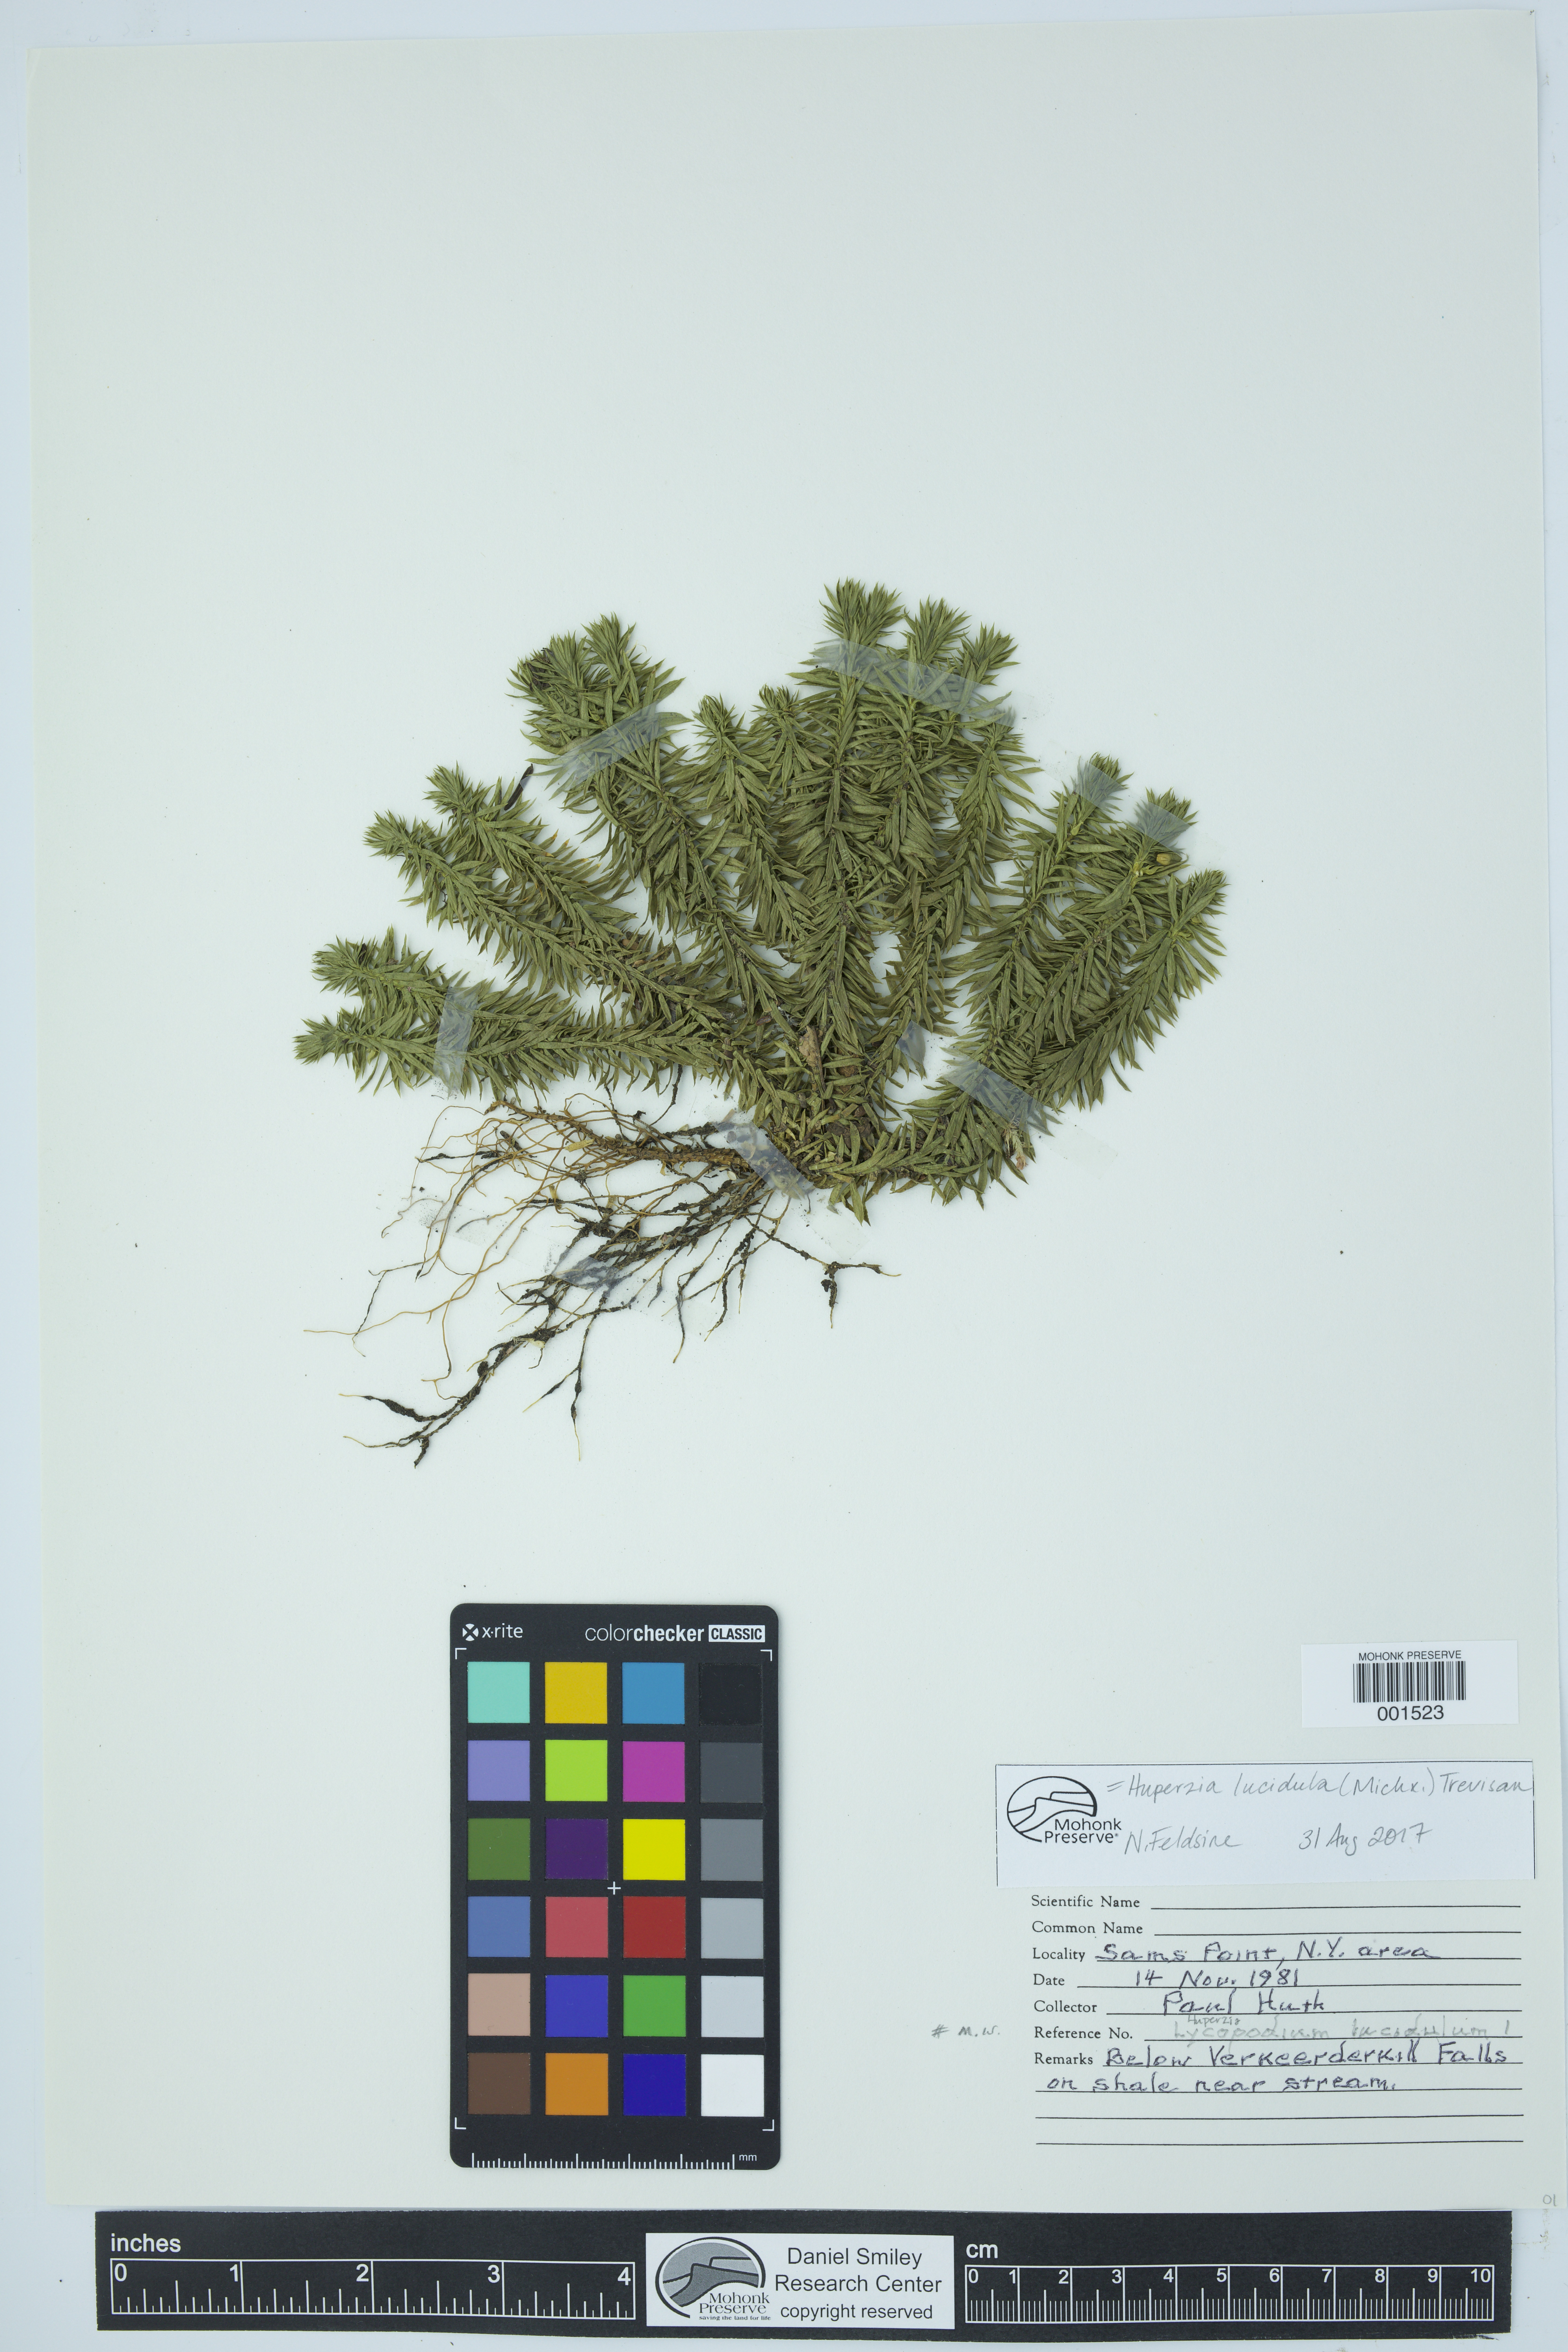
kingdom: Plantae
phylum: Tracheophyta
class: Lycopodiopsida
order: Lycopodiales
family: Lycopodiaceae
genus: Huperzia
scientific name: Huperzia lucidula
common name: Shining clubmoss
